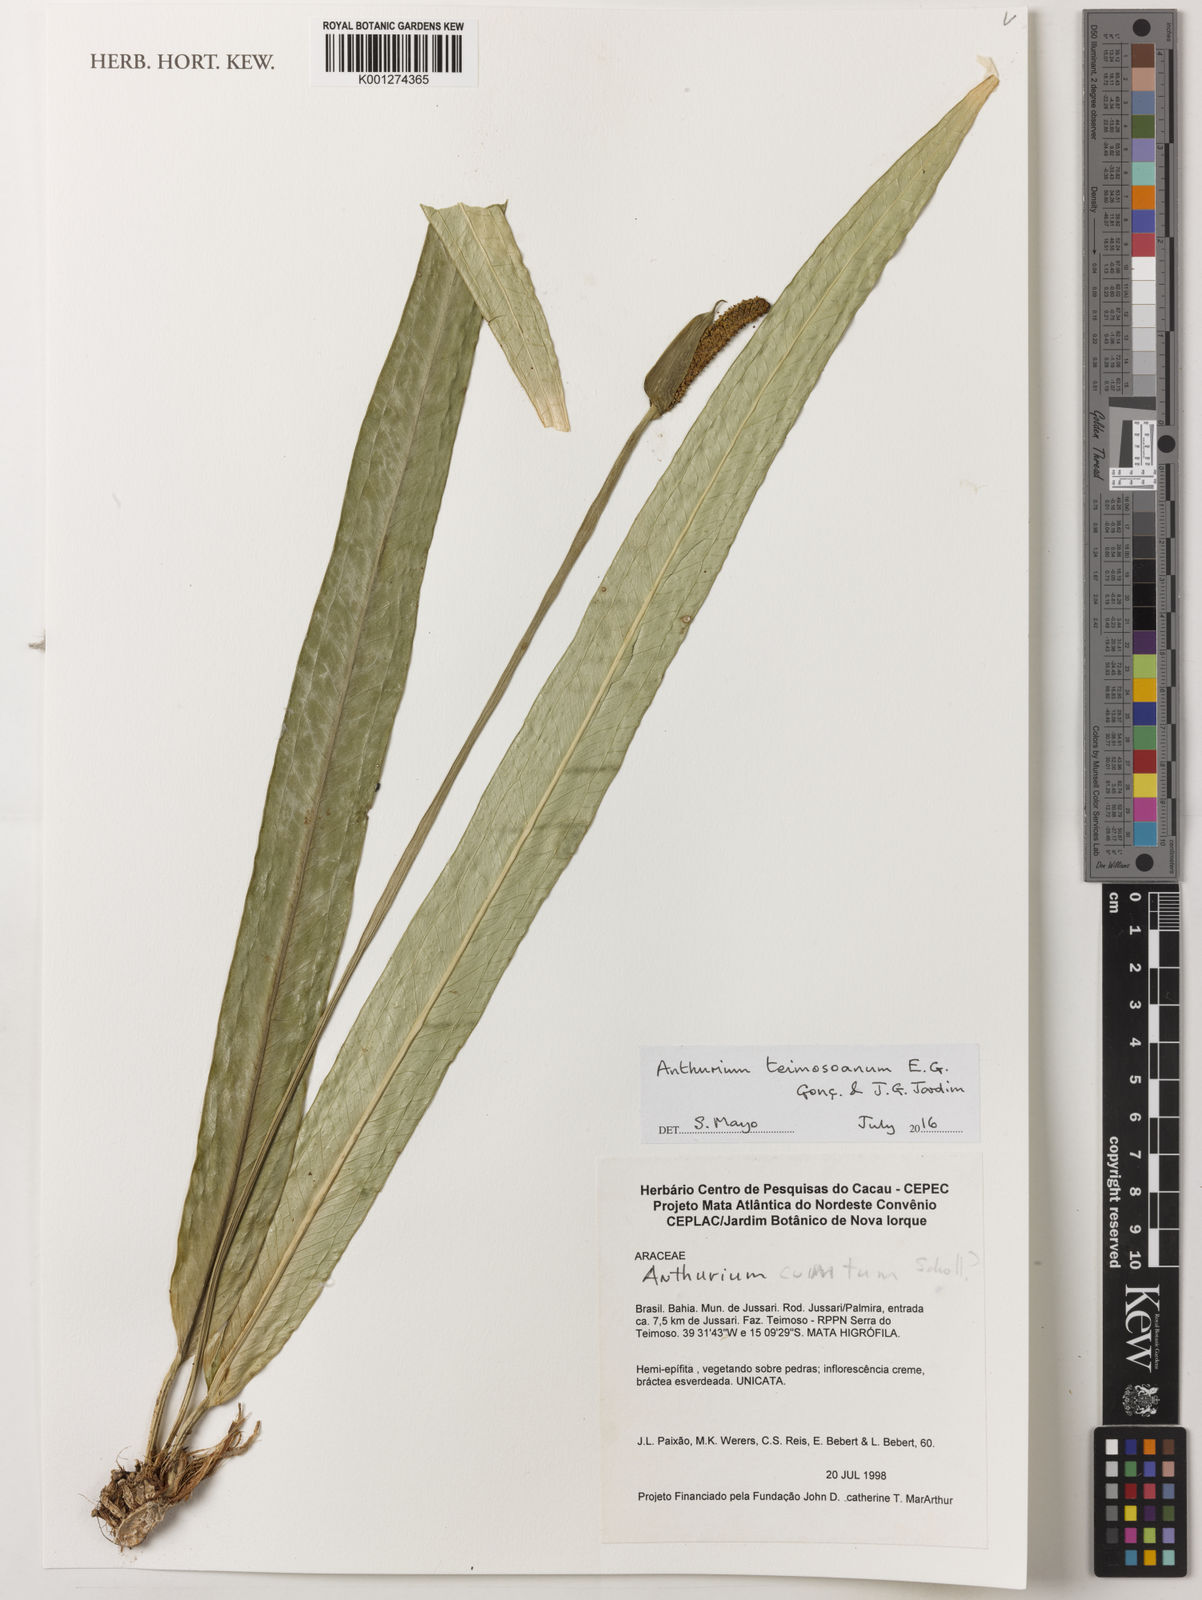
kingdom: Plantae
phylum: Tracheophyta
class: Liliopsida
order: Alismatales
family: Araceae
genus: Anthurium
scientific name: Anthurium teimosoanum
